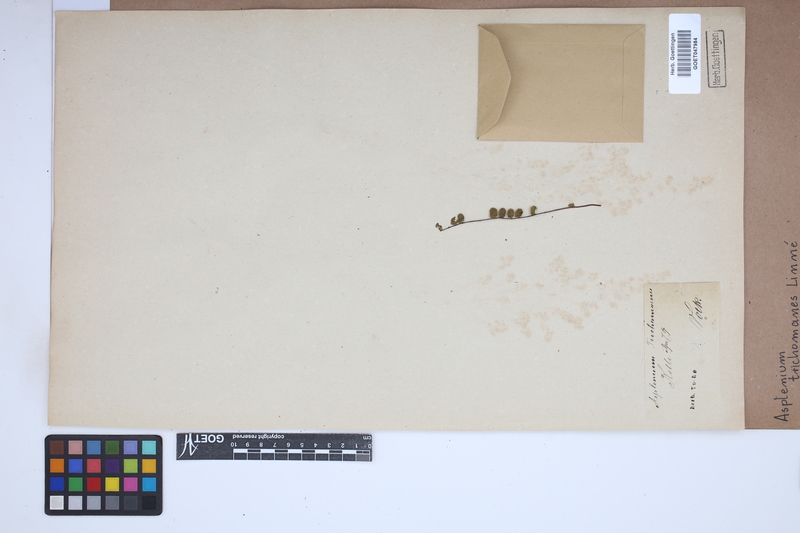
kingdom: Plantae
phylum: Tracheophyta
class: Polypodiopsida
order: Polypodiales
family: Aspleniaceae
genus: Asplenium
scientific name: Asplenium trichomanes
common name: Maidenhair spleenwort
